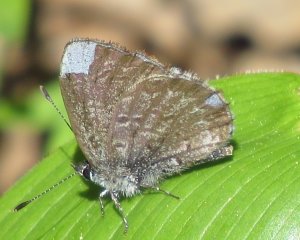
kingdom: Animalia
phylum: Arthropoda
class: Insecta
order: Lepidoptera
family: Lycaenidae
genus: Celastrina
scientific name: Celastrina lucia
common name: Northern Spring Azure
